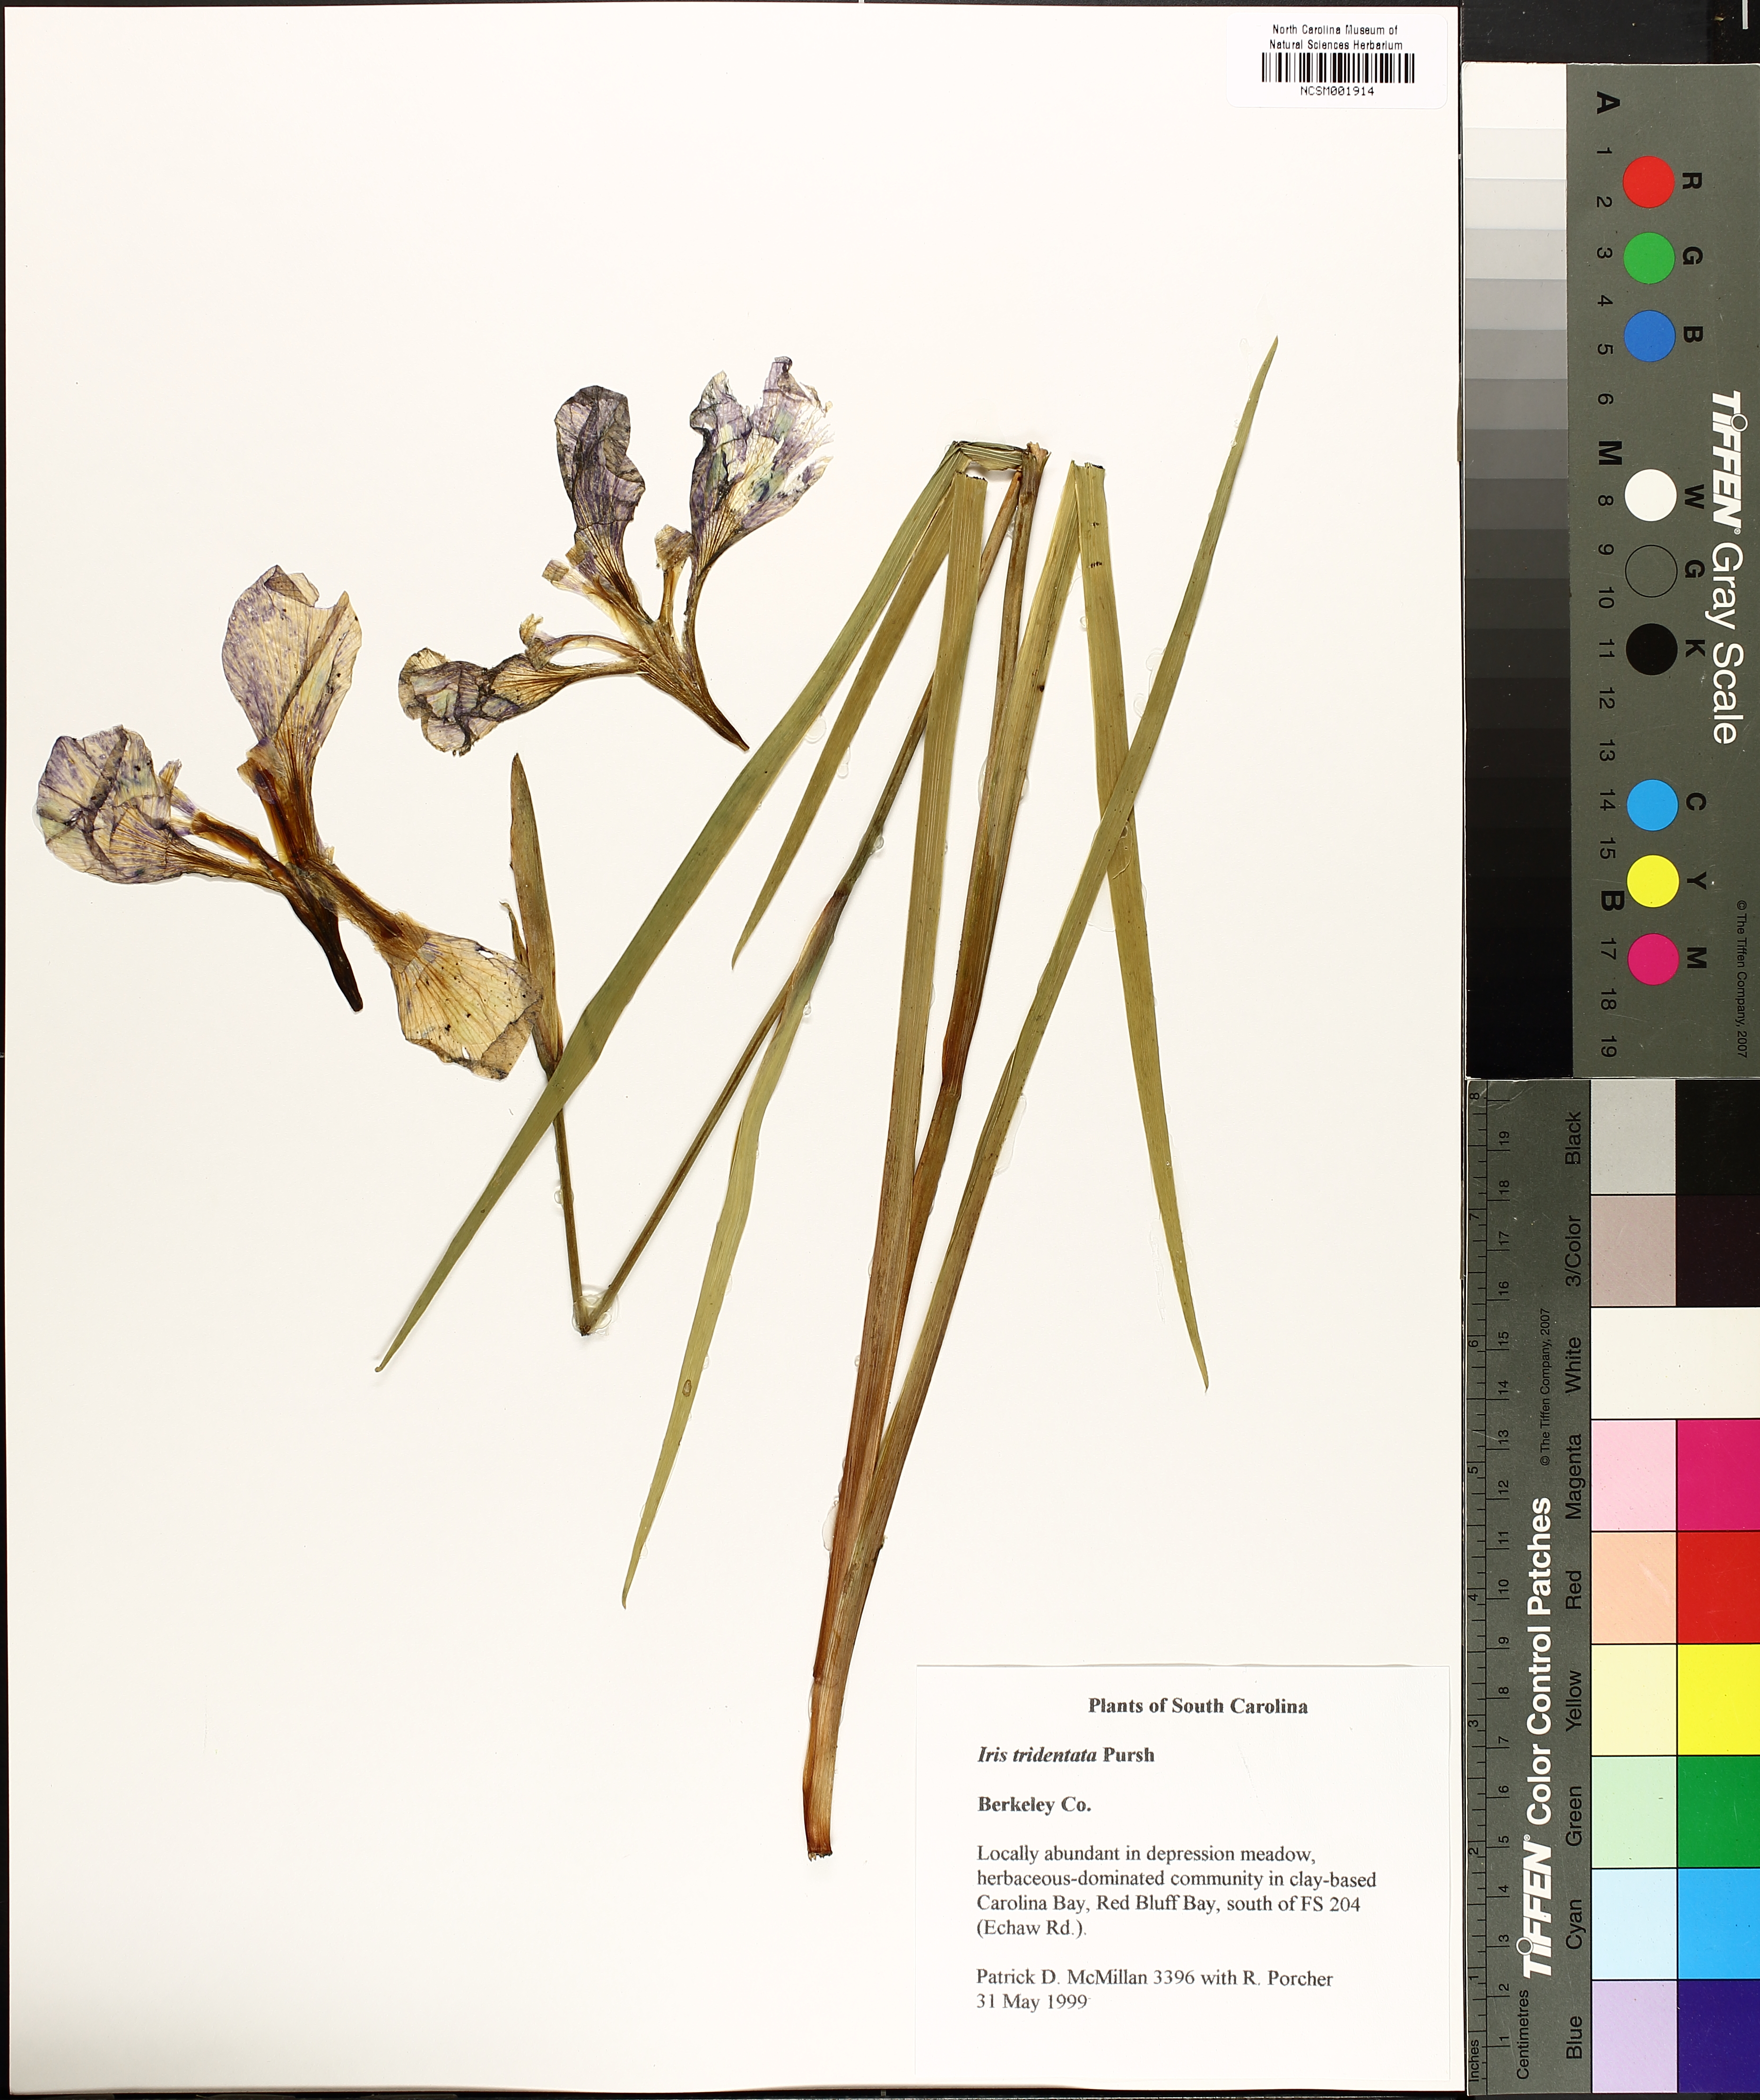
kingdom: Plantae
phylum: Tracheophyta
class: Liliopsida
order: Asparagales
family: Iridaceae
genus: Iris
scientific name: Iris tridentata
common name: Savannah iris
